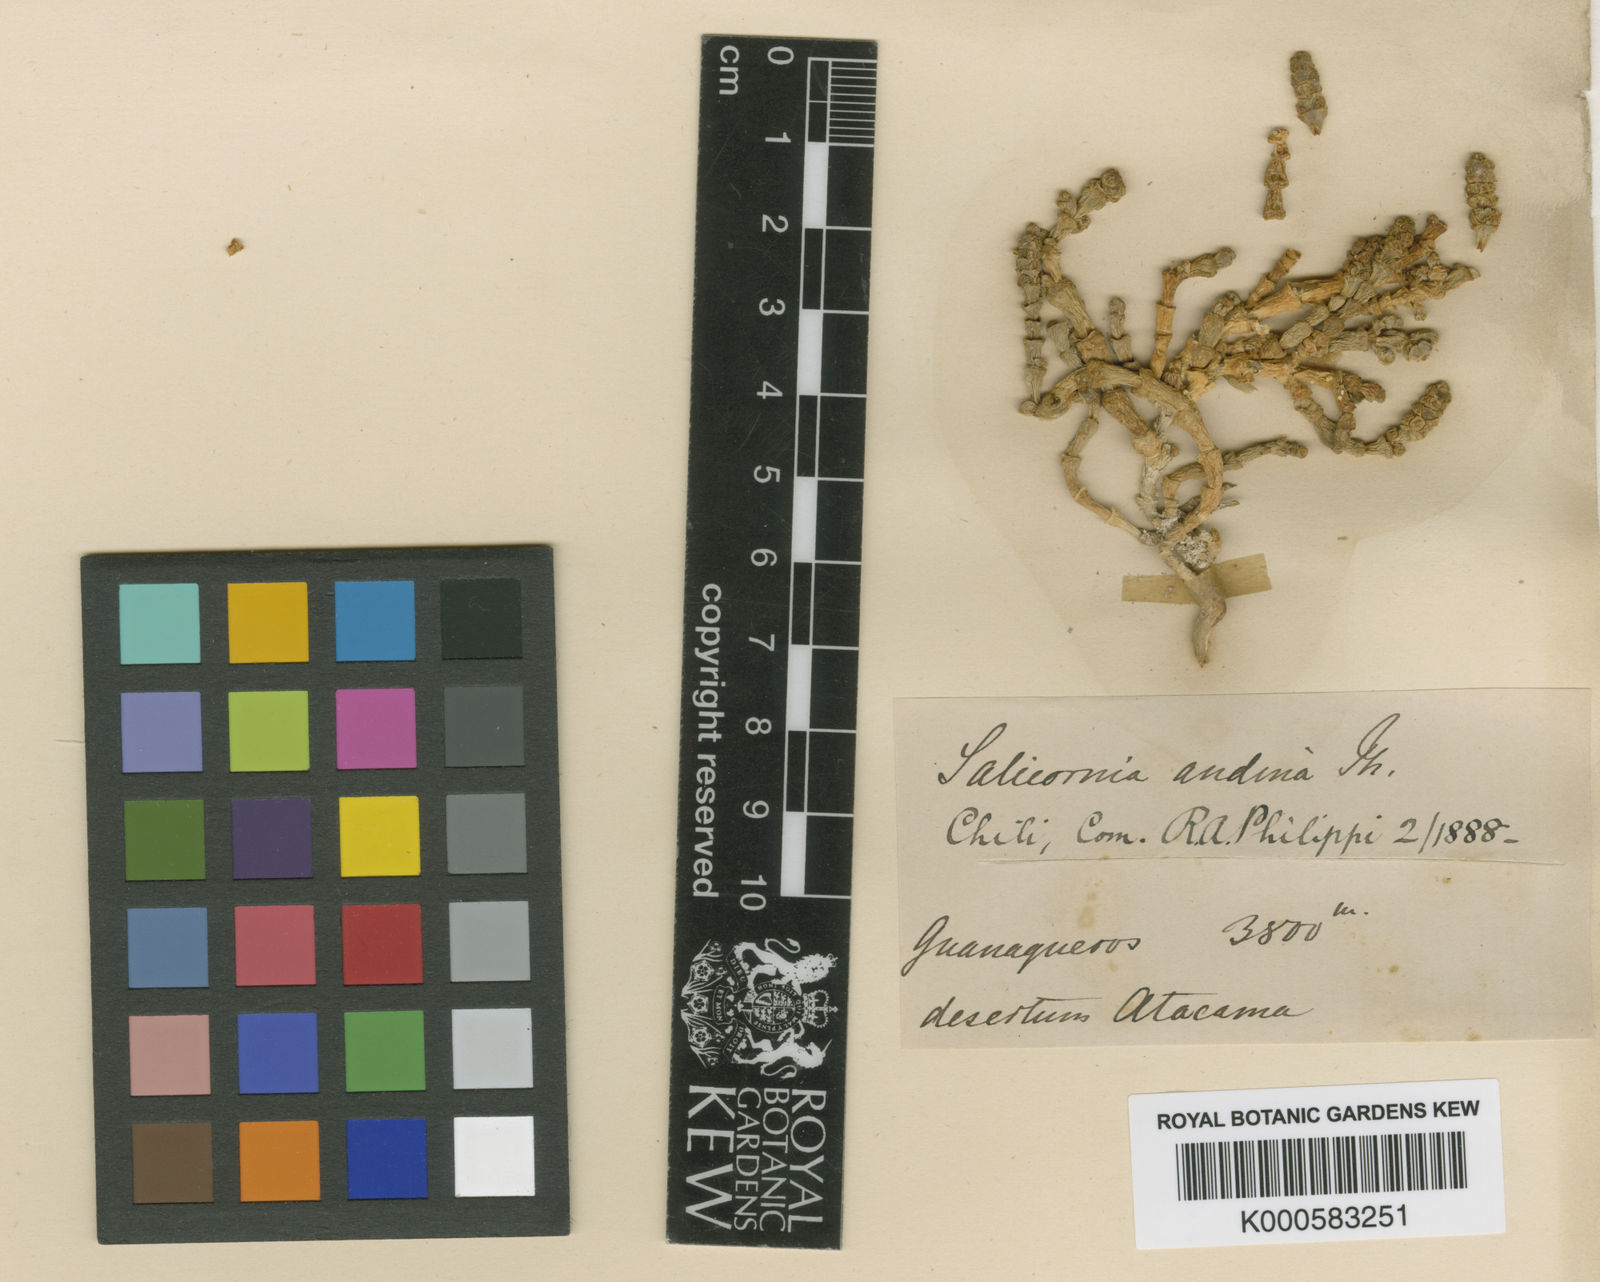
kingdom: Plantae
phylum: Tracheophyta
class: Magnoliopsida
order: Caryophyllales
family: Amaranthaceae
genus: Salicornia
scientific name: Salicornia
